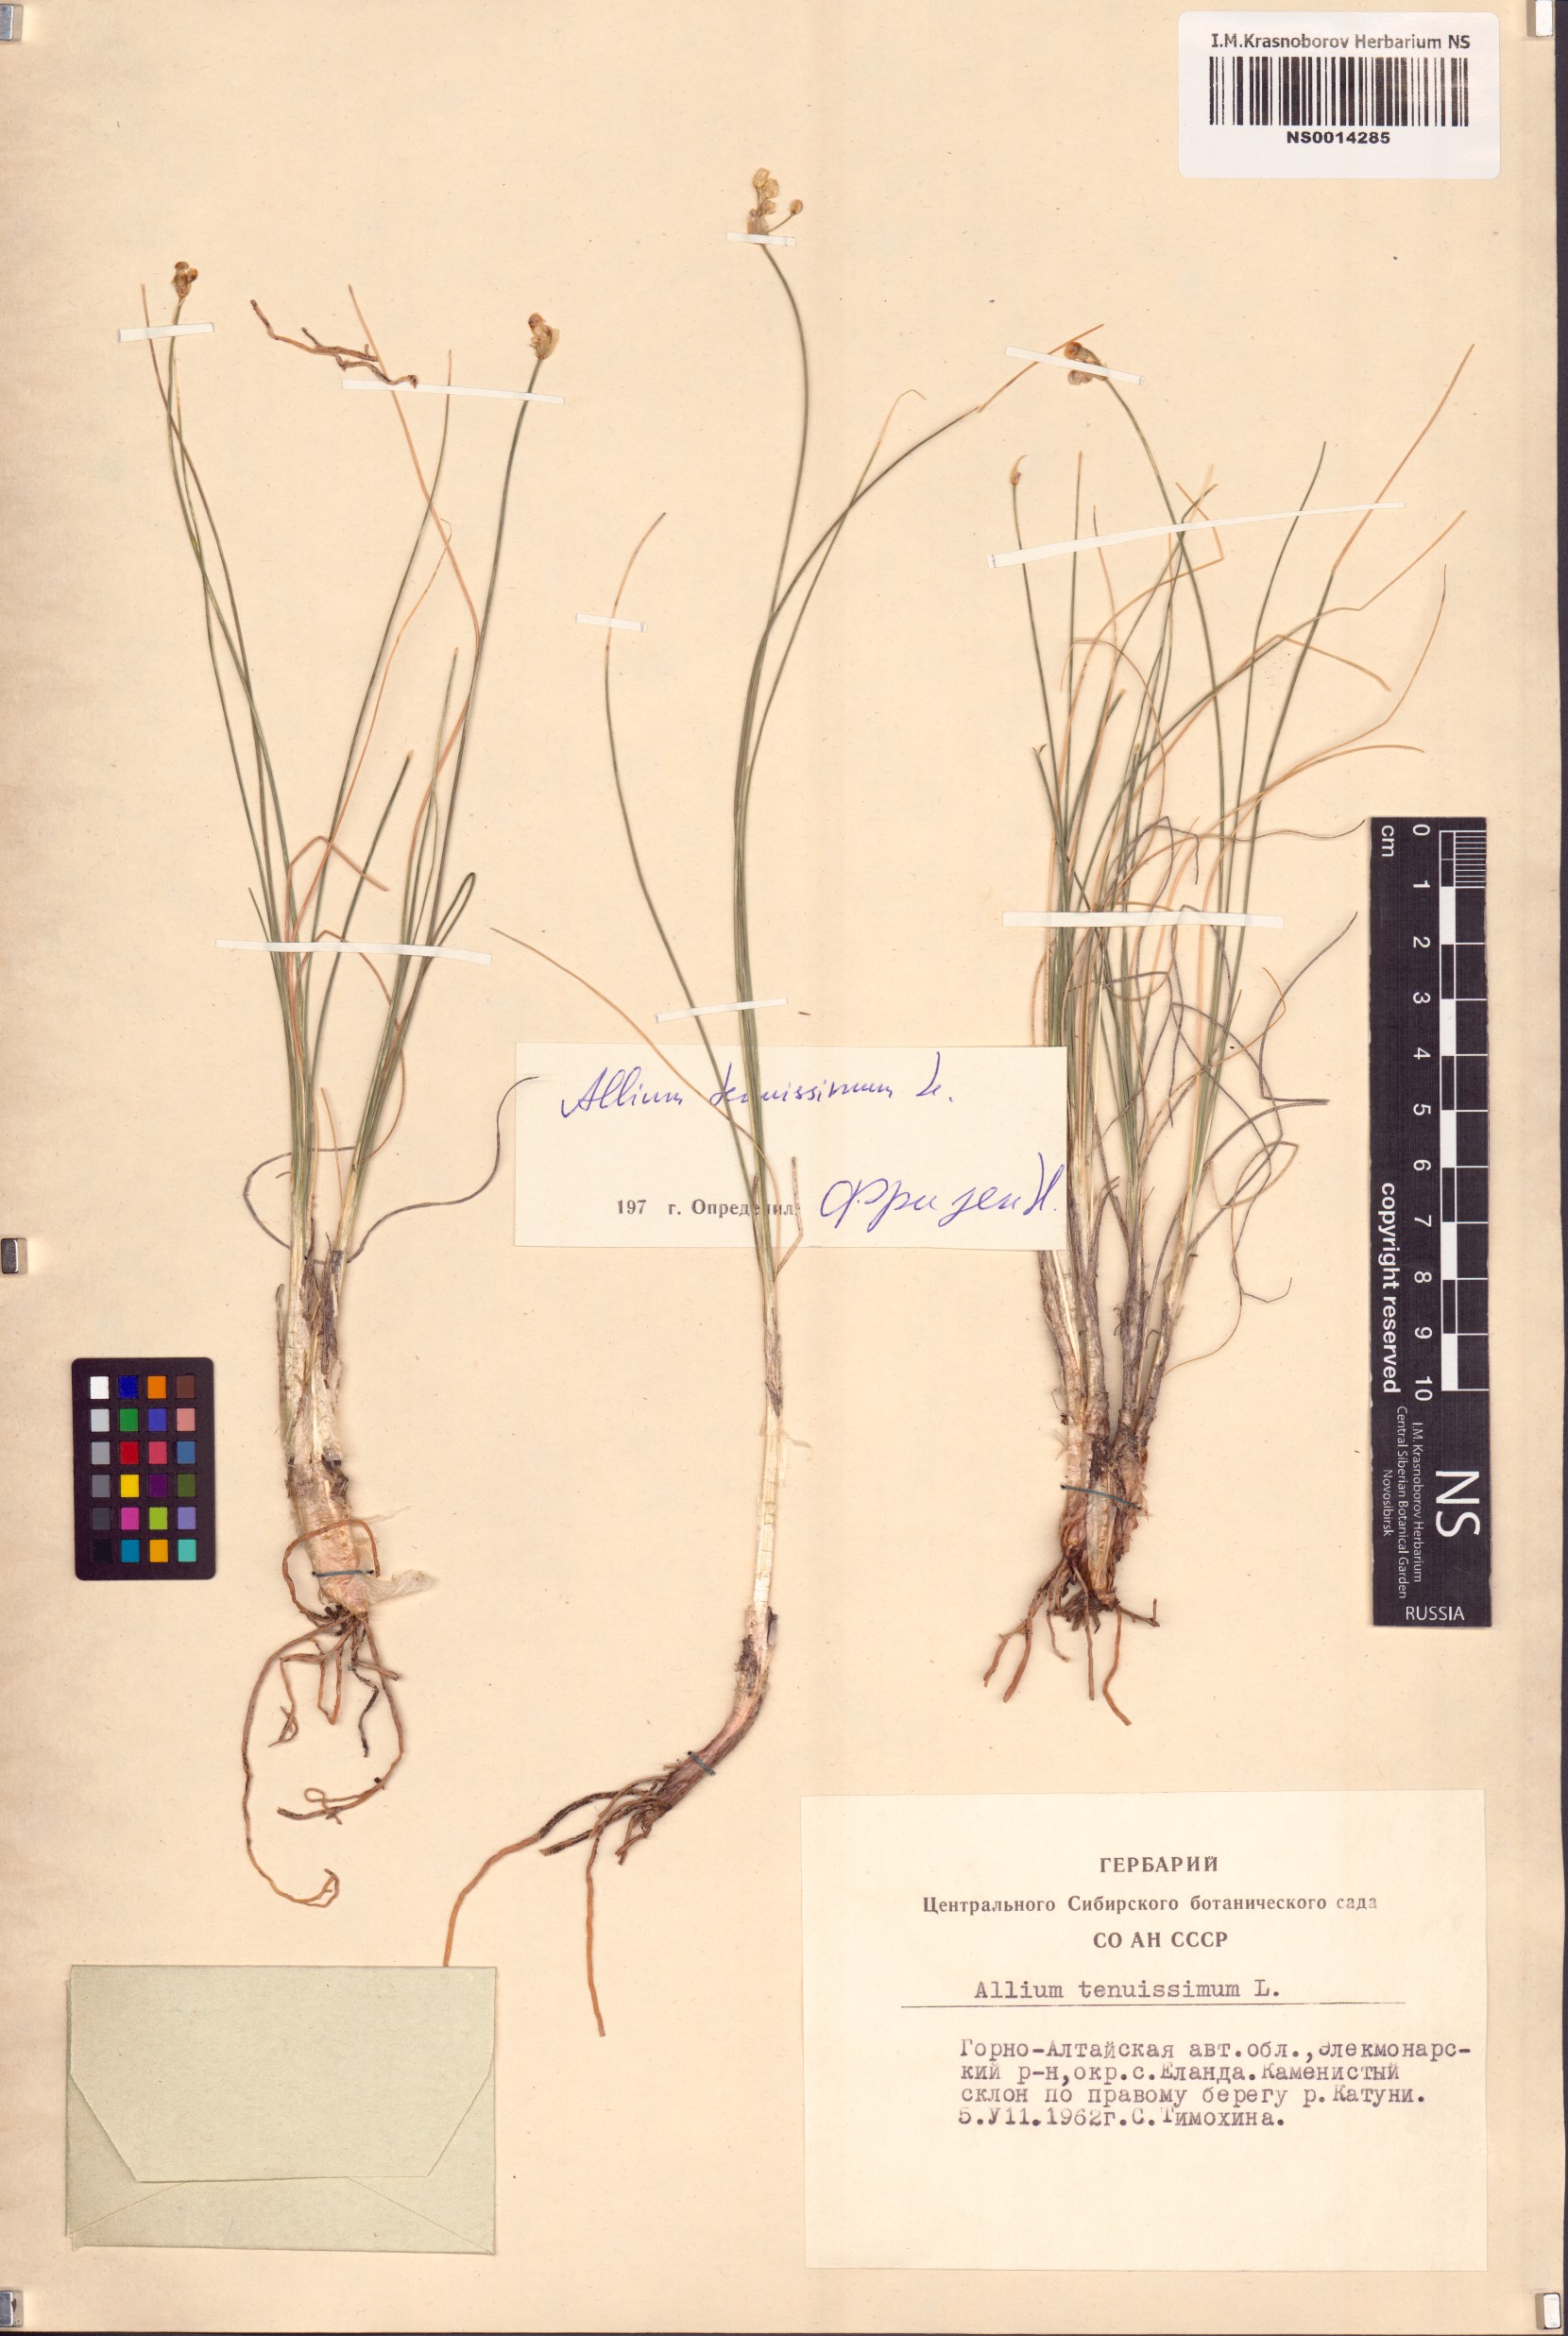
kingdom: Plantae
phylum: Tracheophyta
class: Liliopsida
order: Asparagales
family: Amaryllidaceae
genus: Allium
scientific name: Allium tenuissimum
